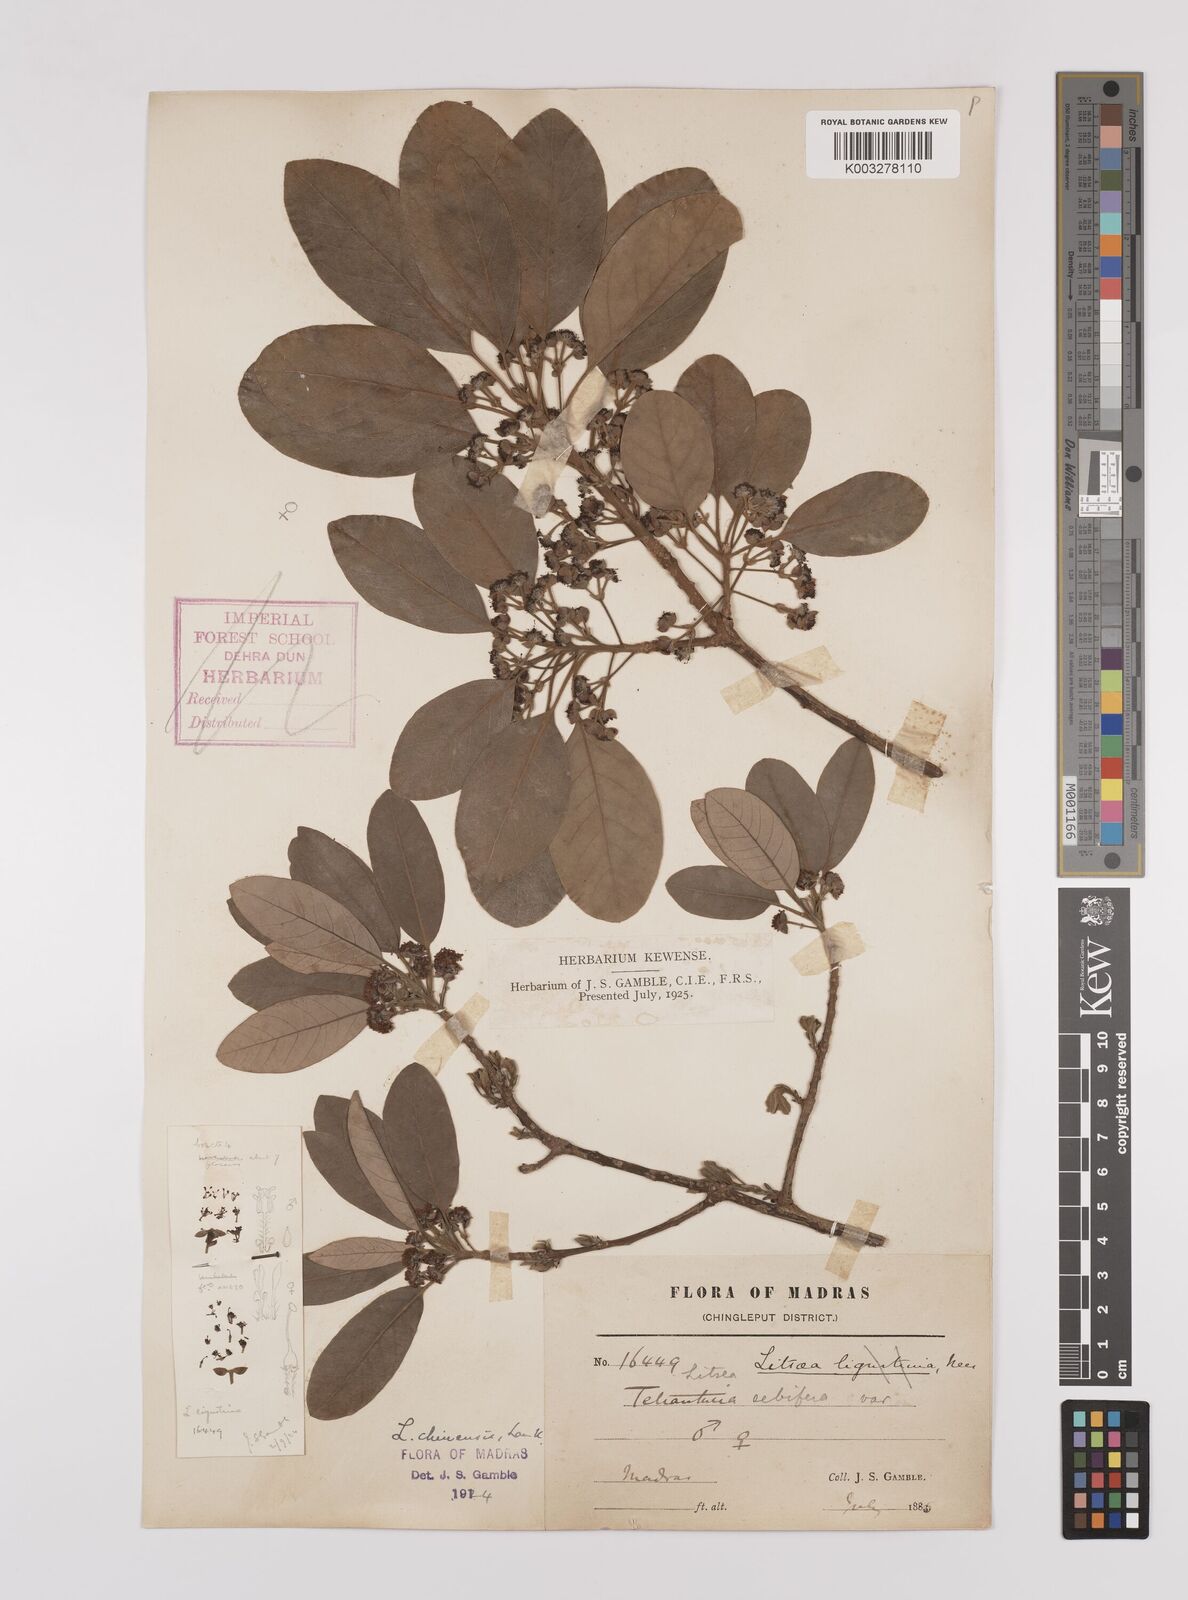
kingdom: Plantae
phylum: Tracheophyta
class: Magnoliopsida
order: Laurales
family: Lauraceae
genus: Litsea
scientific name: Litsea
